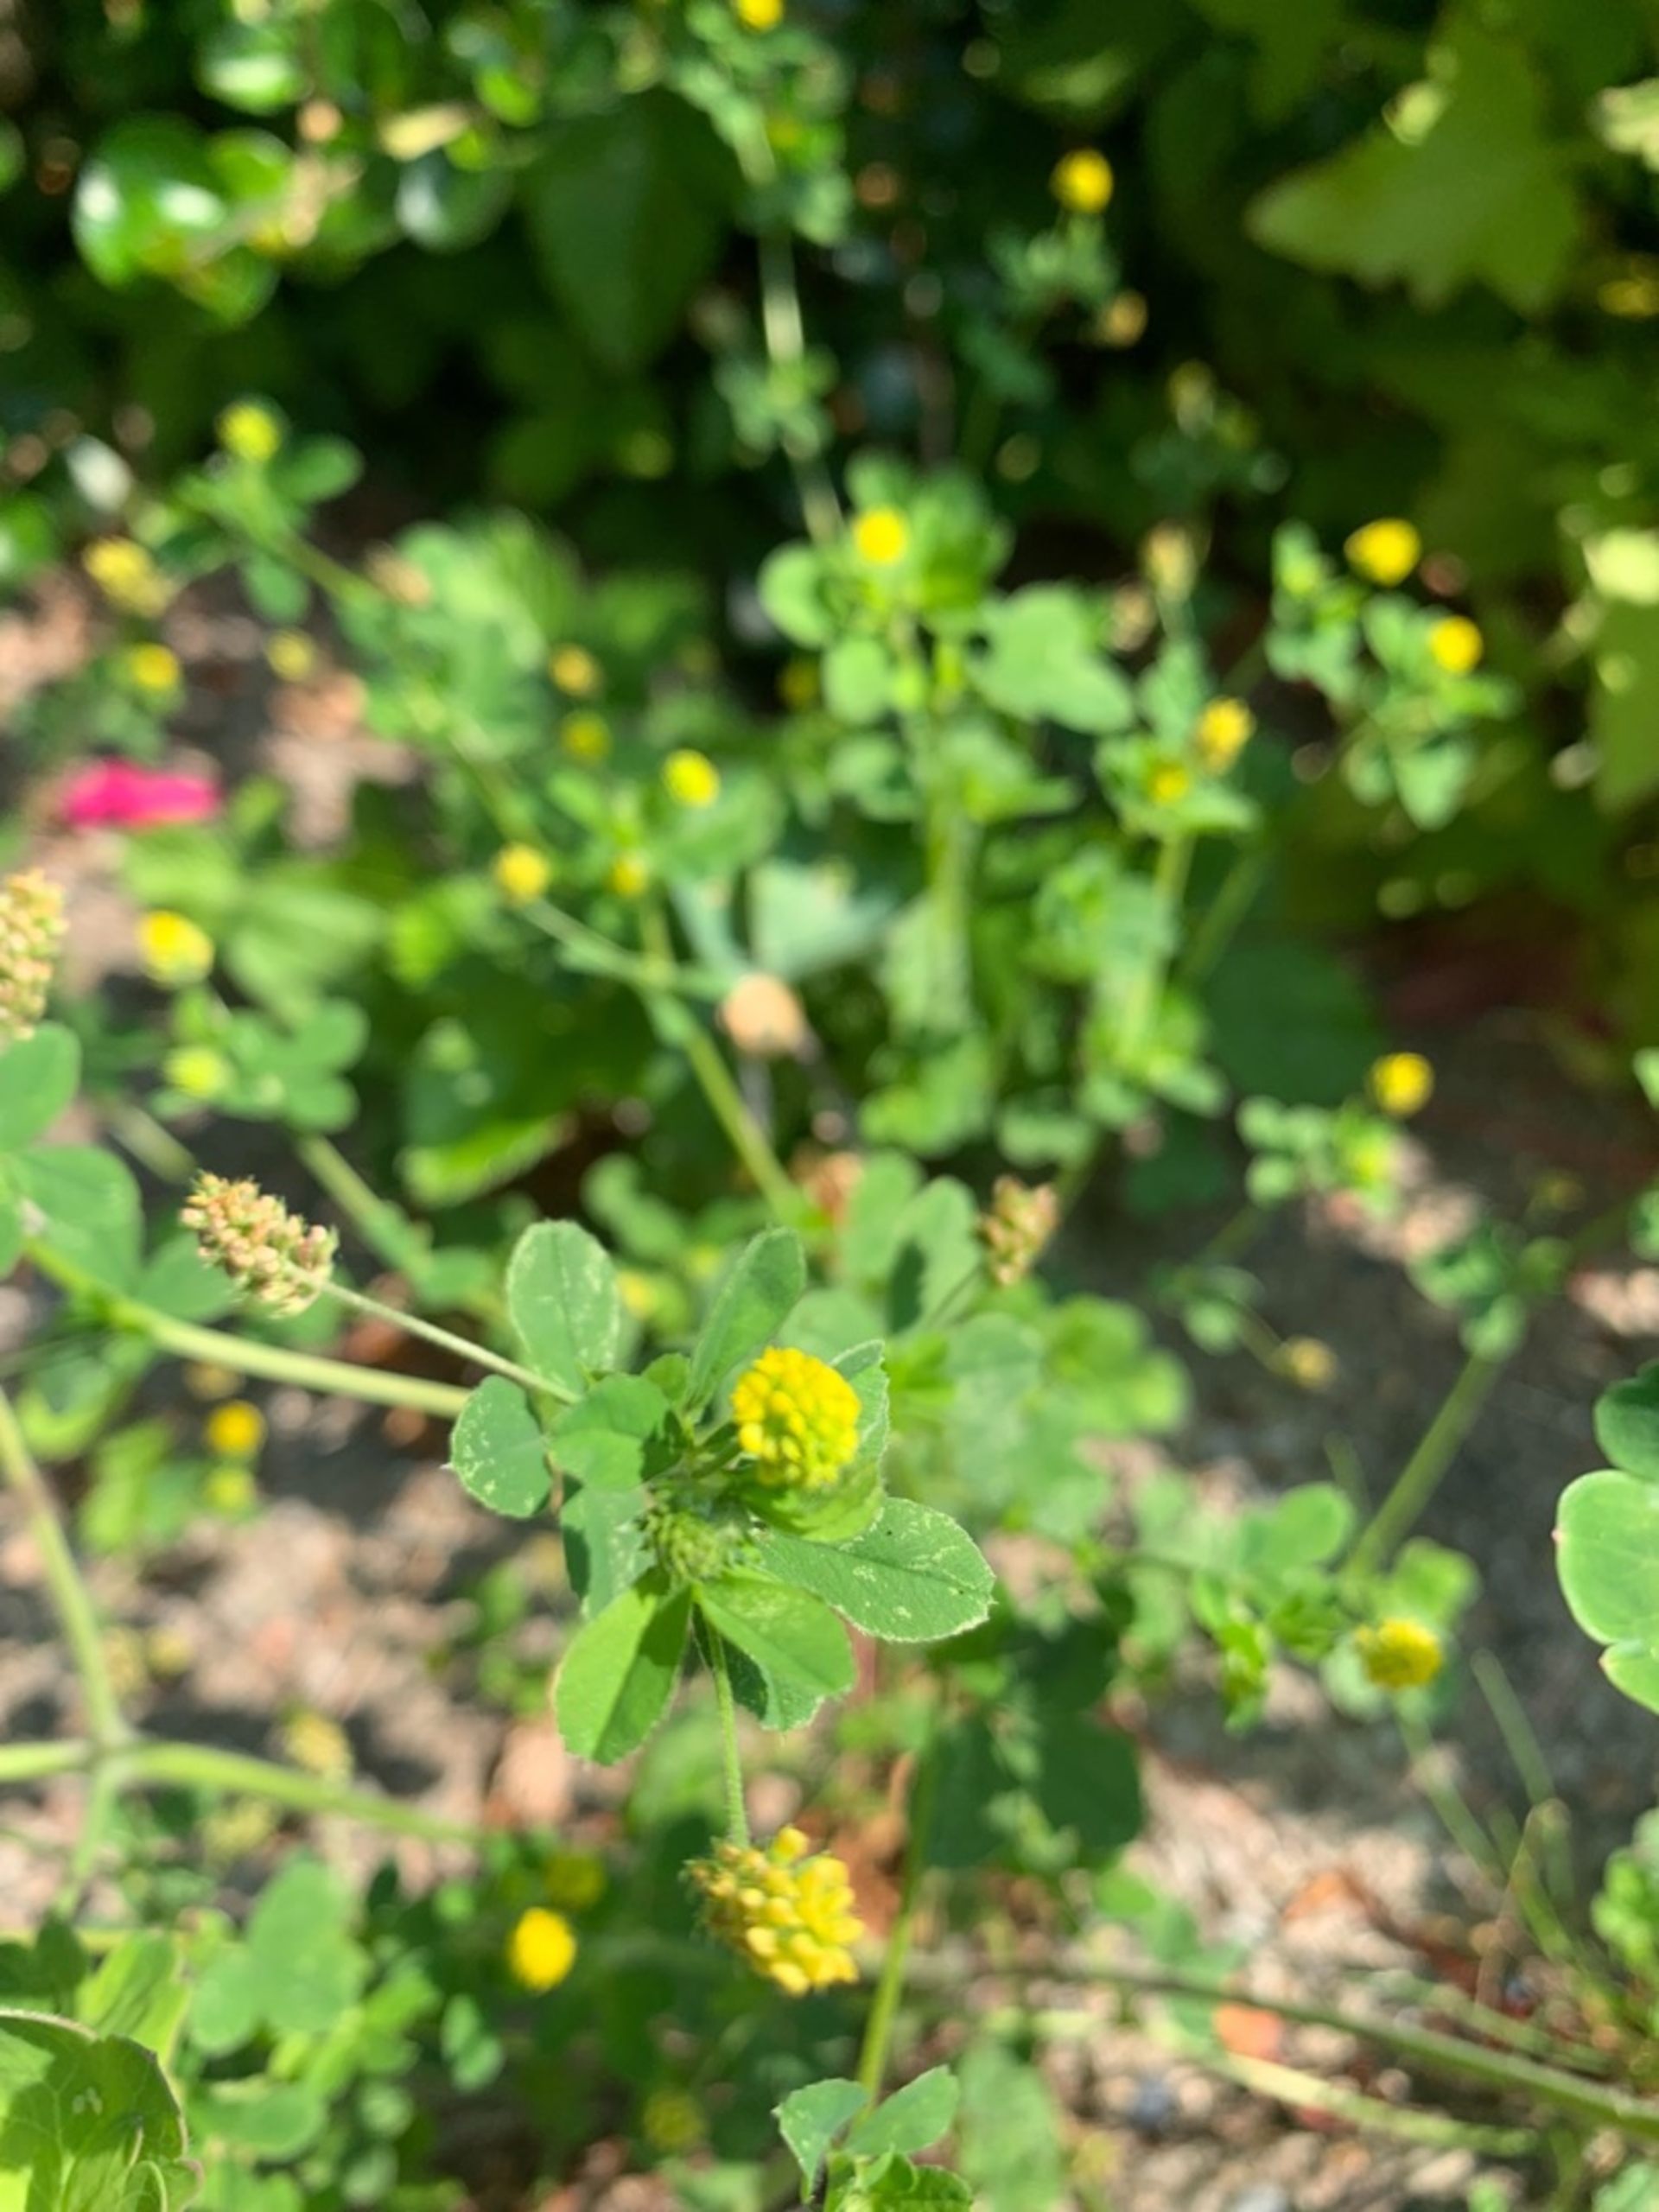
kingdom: Plantae
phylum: Tracheophyta
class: Magnoliopsida
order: Fabales
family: Fabaceae
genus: Medicago
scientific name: Medicago lupulina
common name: Humle-sneglebælg
